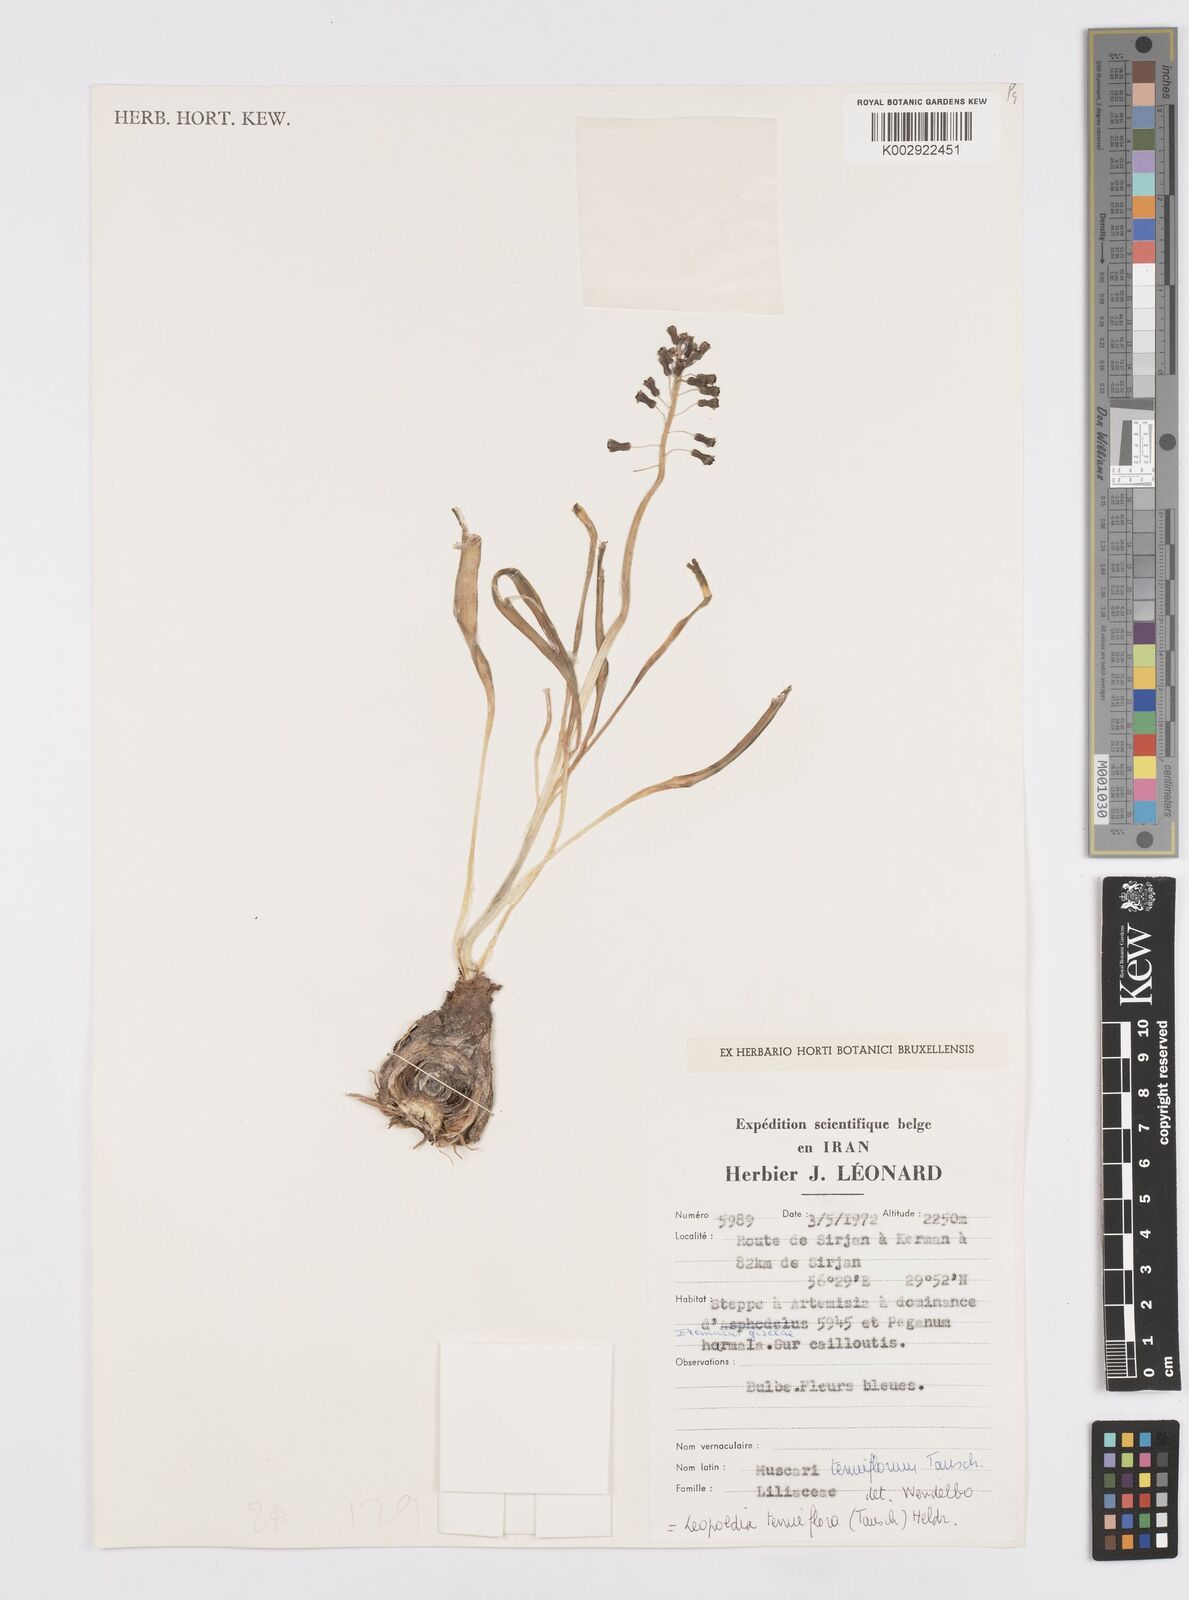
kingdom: Plantae
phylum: Tracheophyta
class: Liliopsida
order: Asparagales
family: Asparagaceae
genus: Muscari
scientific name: Muscari tenuiflorum
